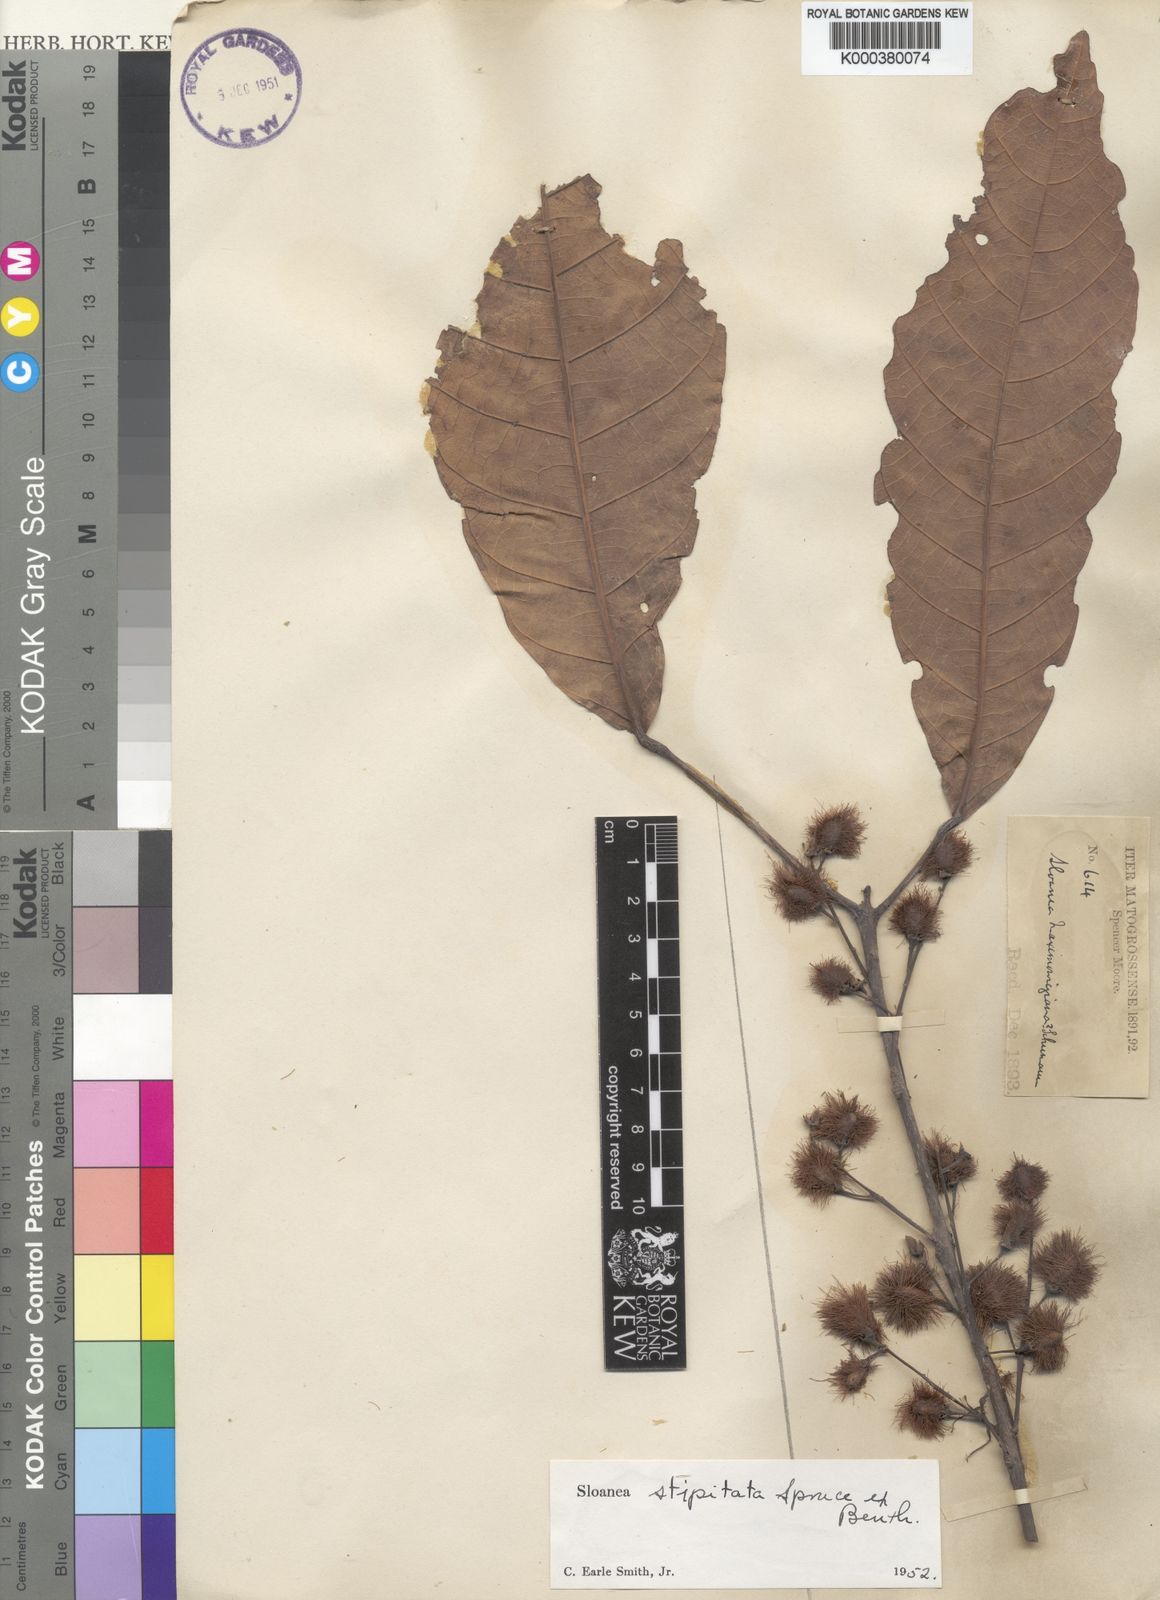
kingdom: Plantae
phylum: Tracheophyta
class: Magnoliopsida
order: Oxalidales
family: Elaeocarpaceae
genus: Sloanea
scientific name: Sloanea guianensis
